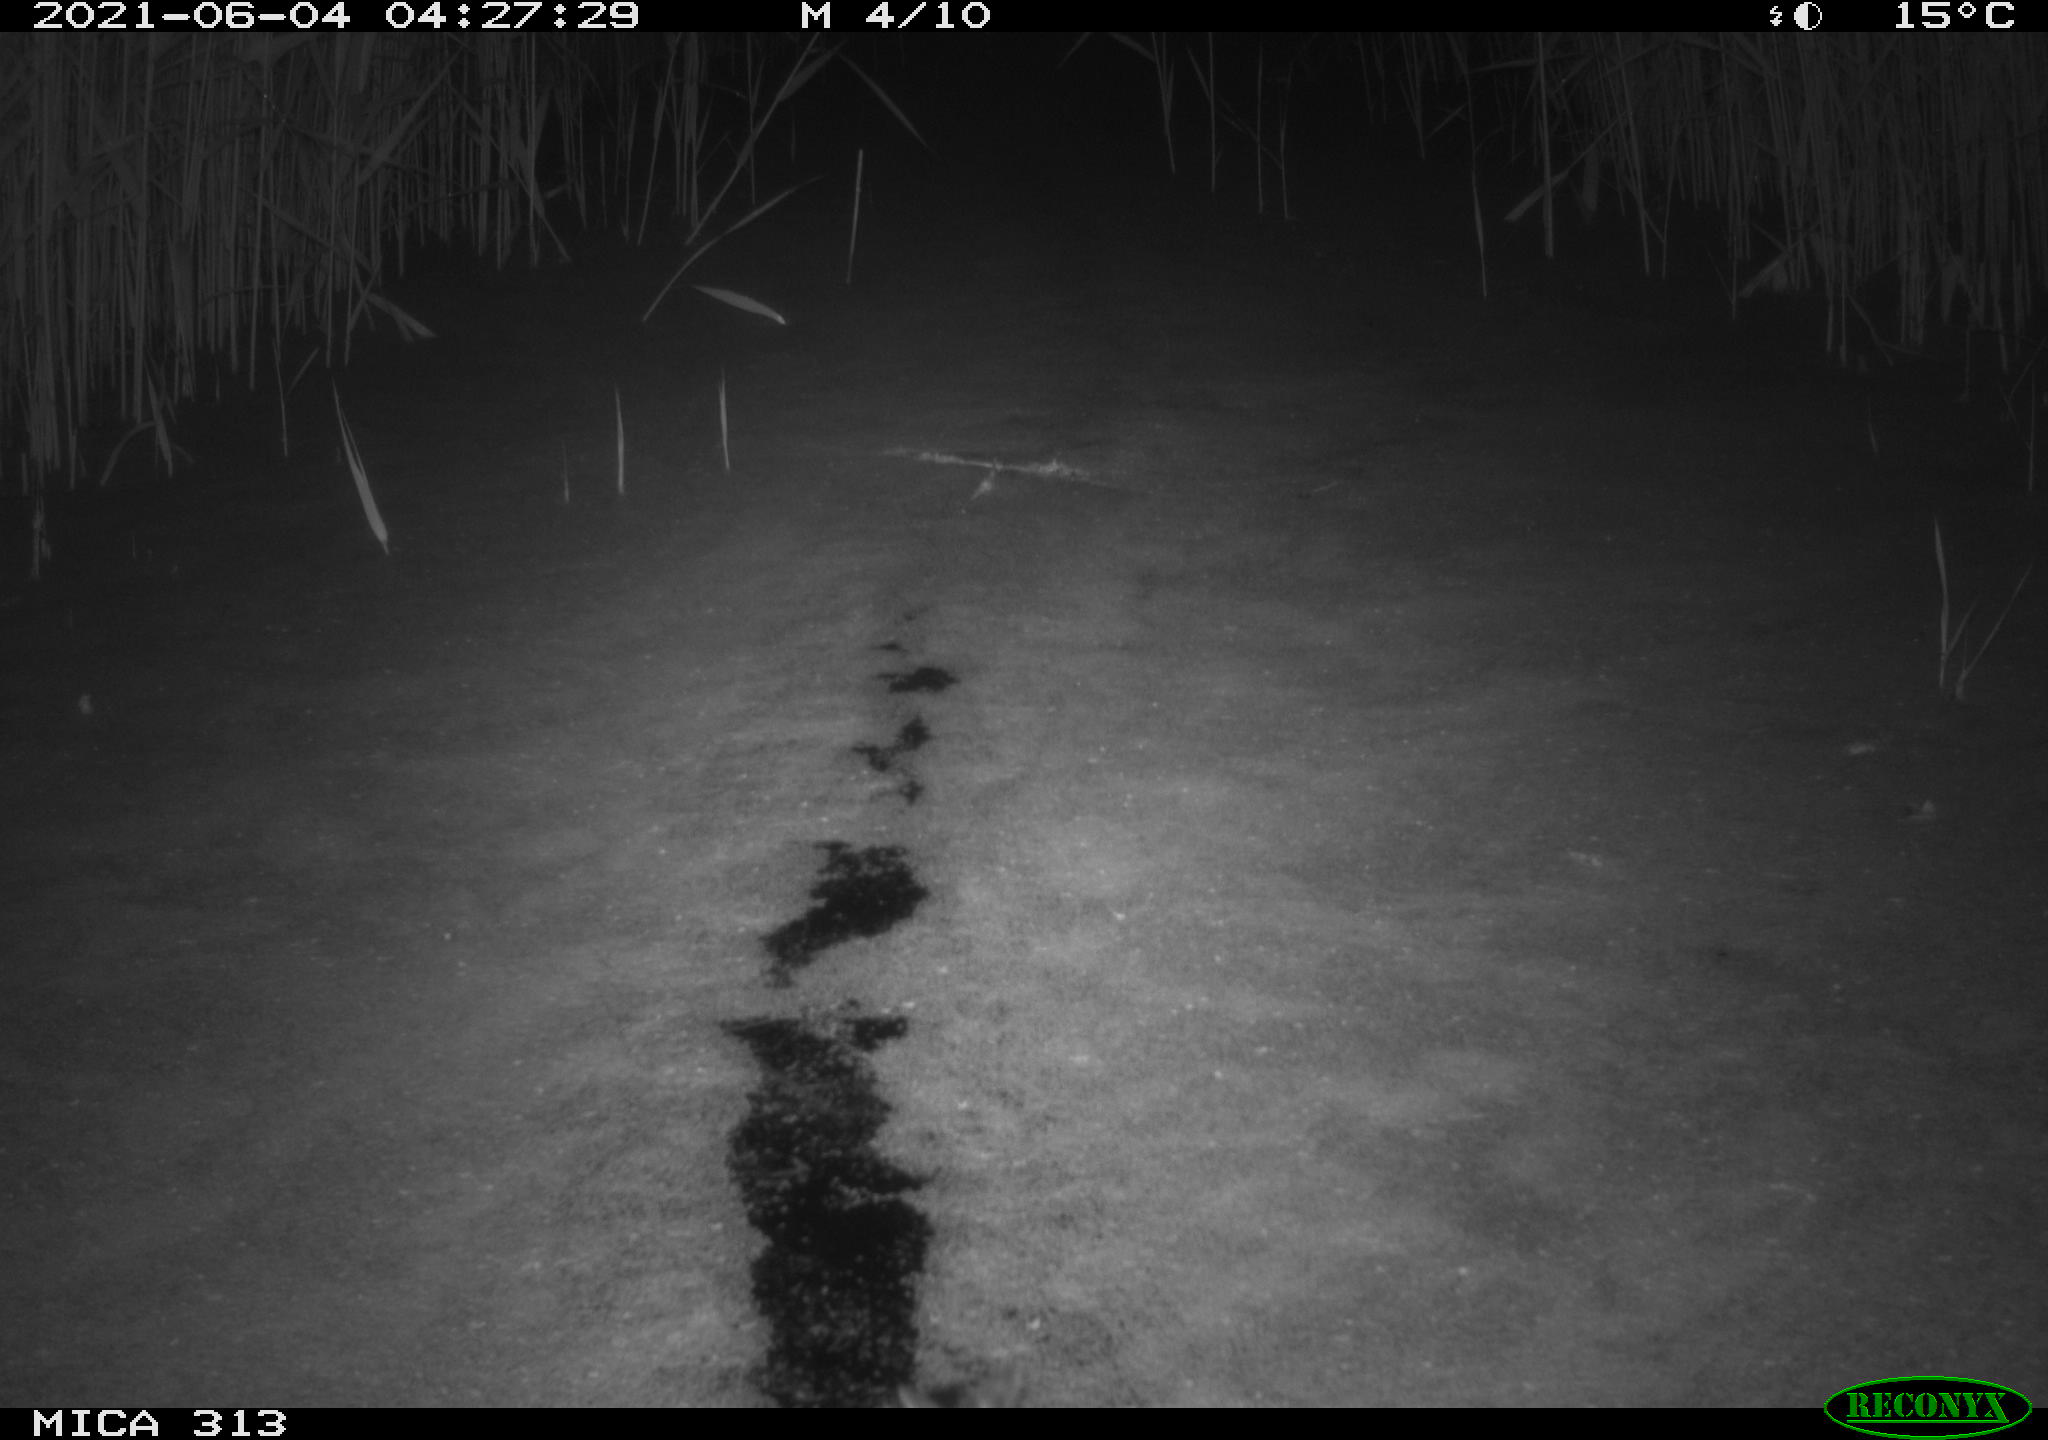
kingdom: Animalia
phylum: Chordata
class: Aves
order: Anseriformes
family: Anatidae
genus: Anas
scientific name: Anas
